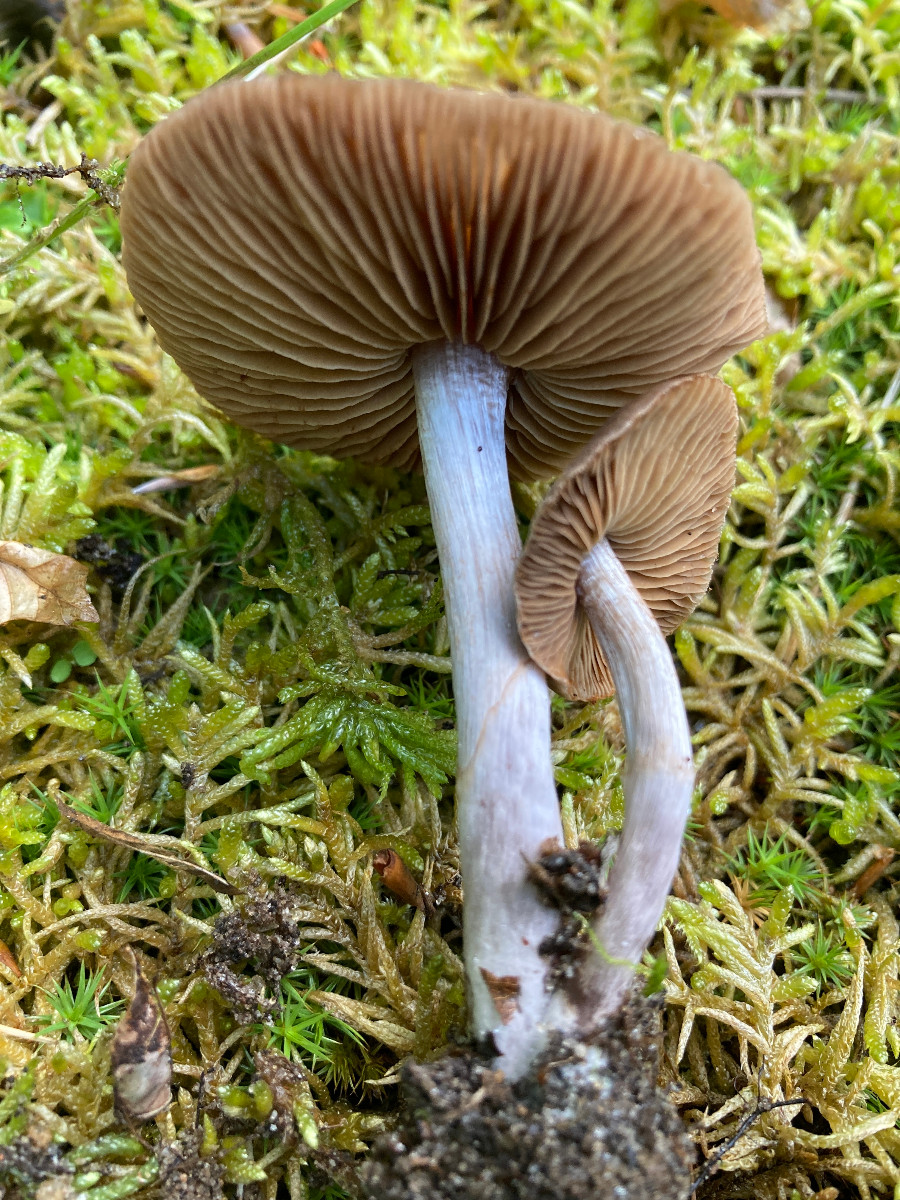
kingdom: Fungi
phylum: Basidiomycota
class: Agaricomycetes
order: Agaricales
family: Cortinariaceae
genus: Cortinarius
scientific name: Cortinarius
